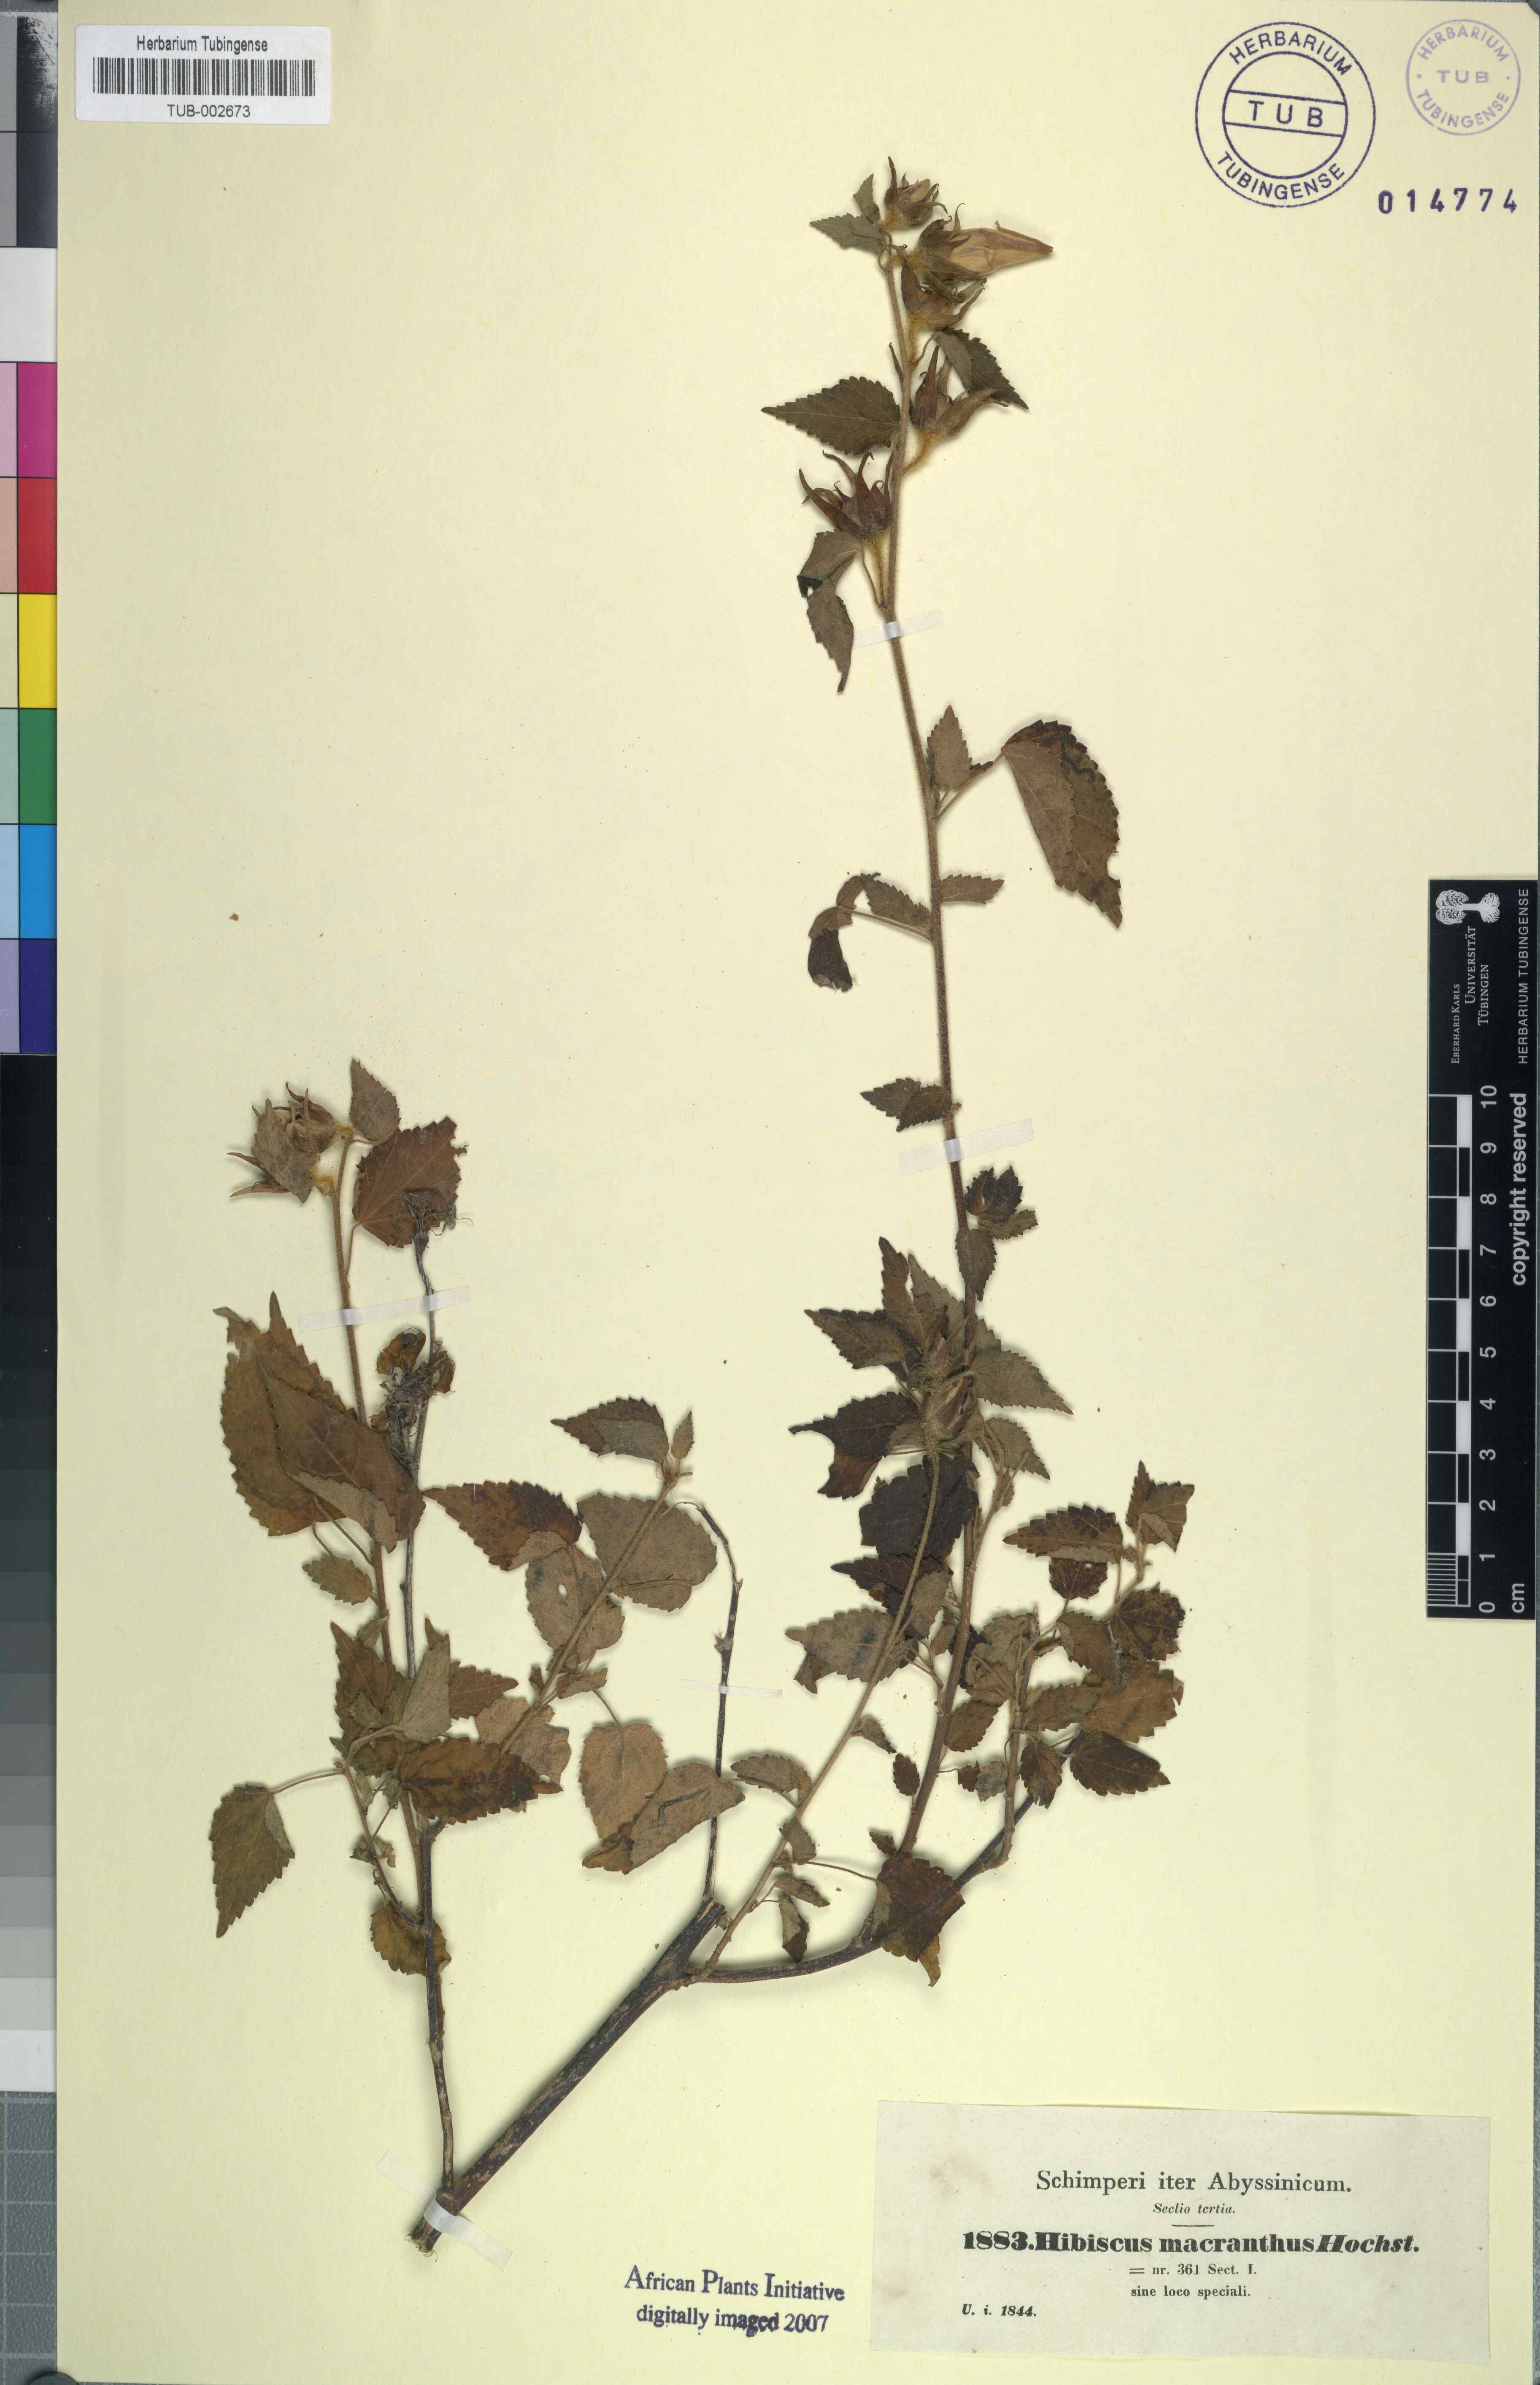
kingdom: Plantae
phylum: Tracheophyta
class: Magnoliopsida
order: Malvales
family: Malvaceae
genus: Hibiscus
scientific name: Hibiscus lunariifolius
